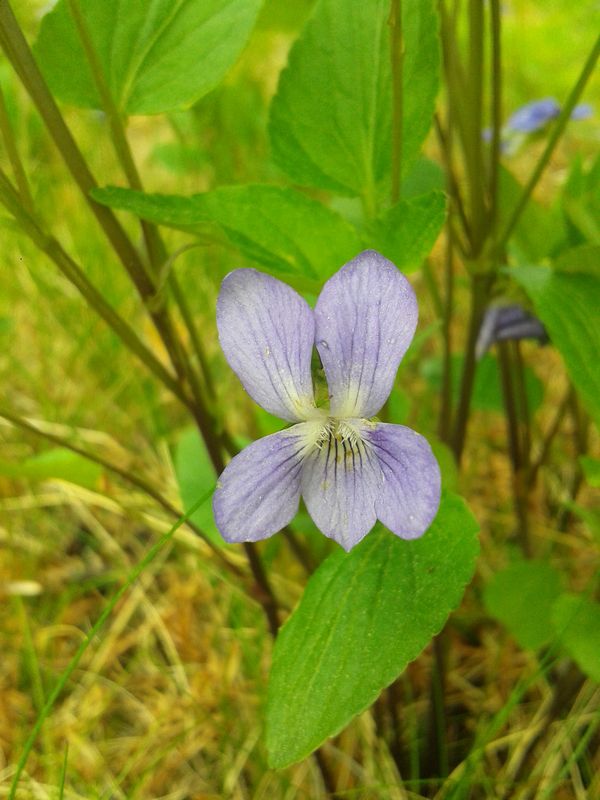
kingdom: Plantae
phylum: Tracheophyta
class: Magnoliopsida
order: Malpighiales
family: Violaceae
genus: Viola
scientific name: Viola canina
